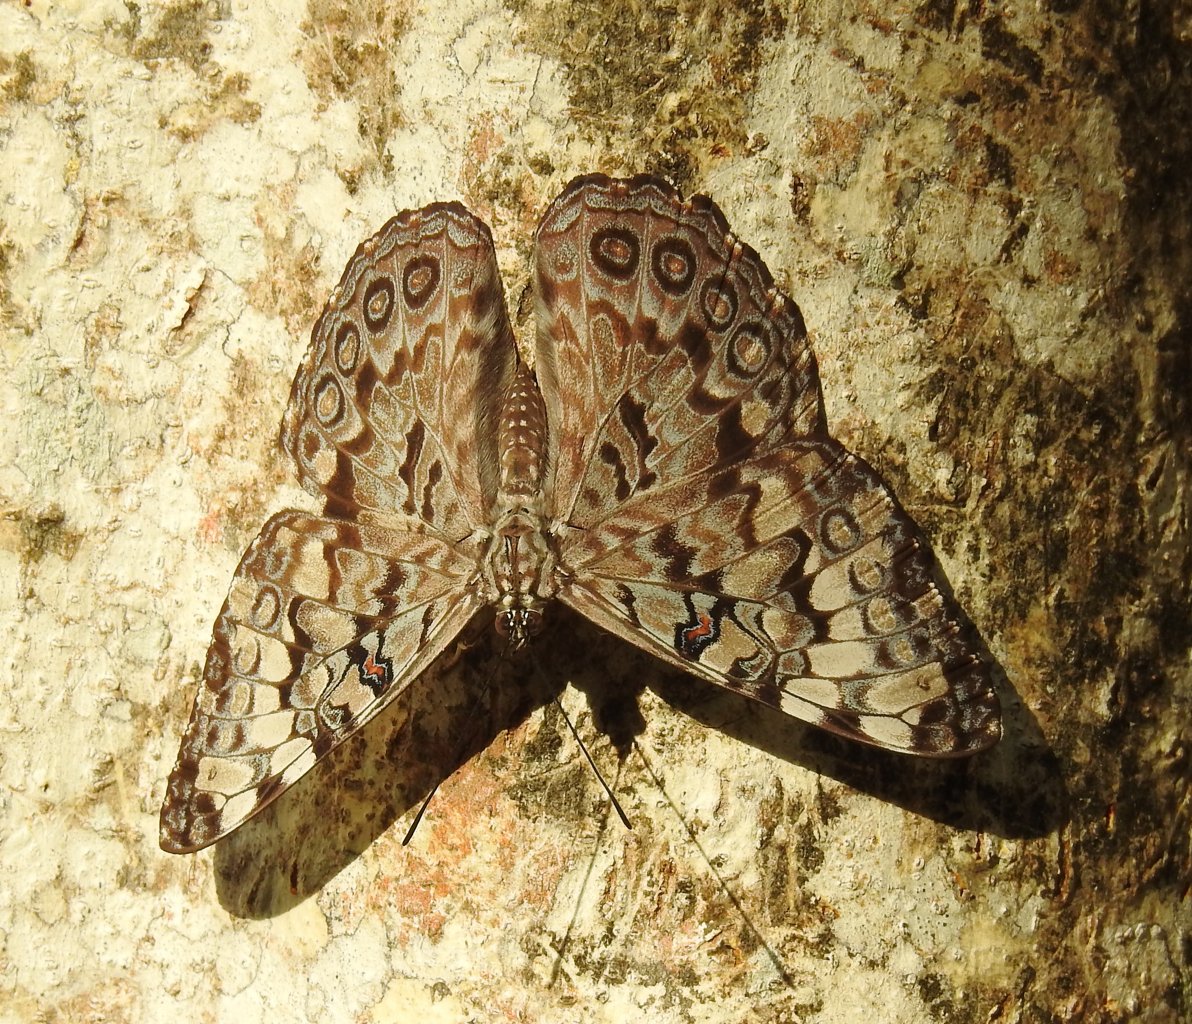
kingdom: Animalia
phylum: Arthropoda
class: Insecta
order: Lepidoptera
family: Nymphalidae
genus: Hamadryas
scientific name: Hamadryas februa
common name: Gray Cracker
